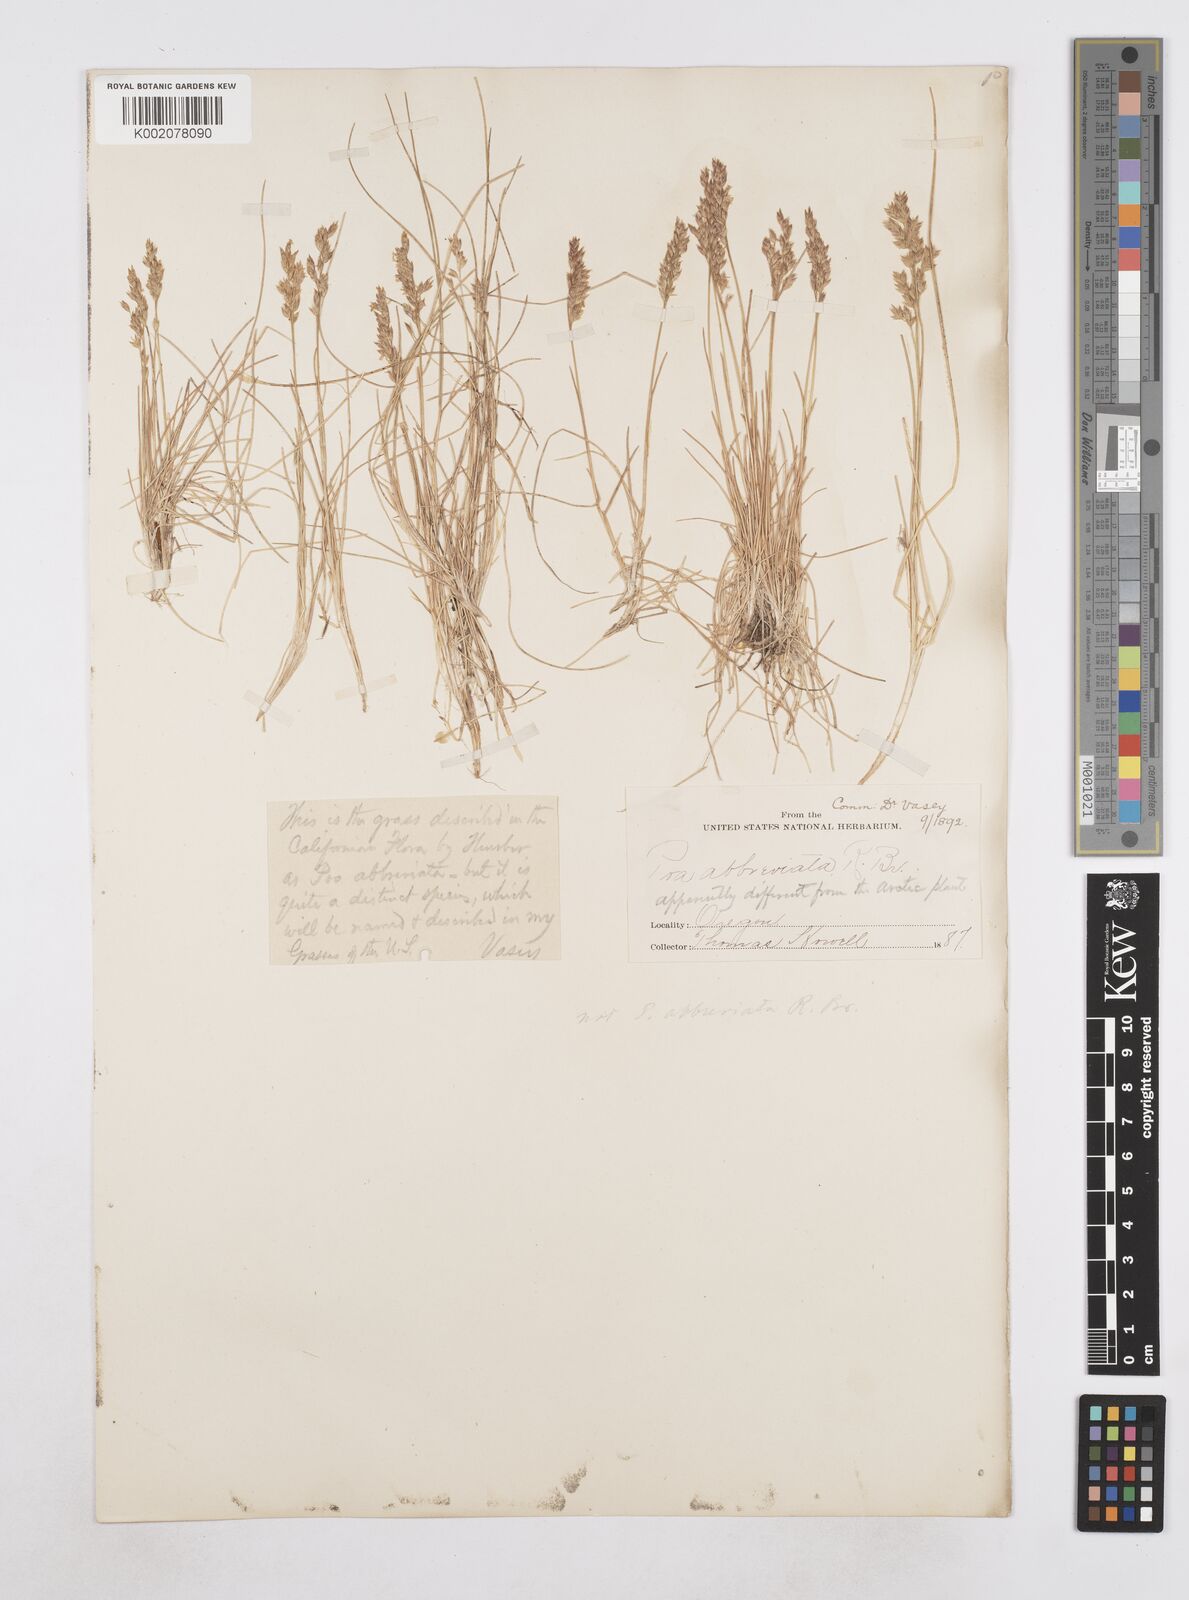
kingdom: Plantae
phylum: Tracheophyta
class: Liliopsida
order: Poales
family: Poaceae
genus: Poa
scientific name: Poa
